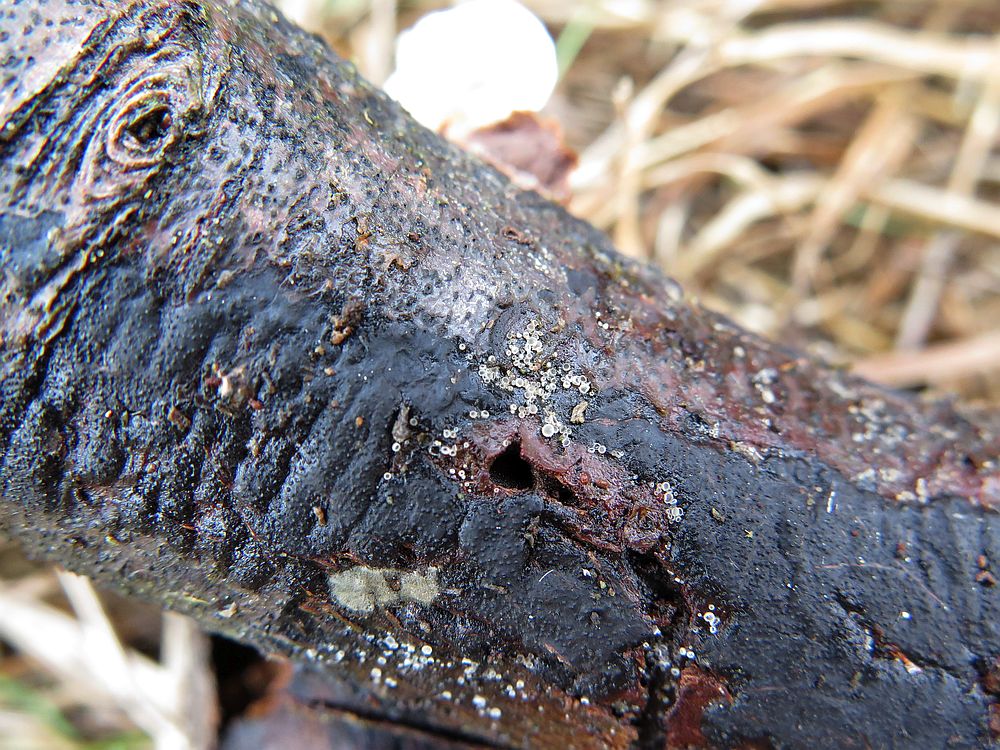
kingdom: Fungi
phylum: Ascomycota
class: Sordariomycetes
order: Xylariales
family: Diatrypaceae
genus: Eutypa
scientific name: Eutypa lata
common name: almindelig kulskorpe
